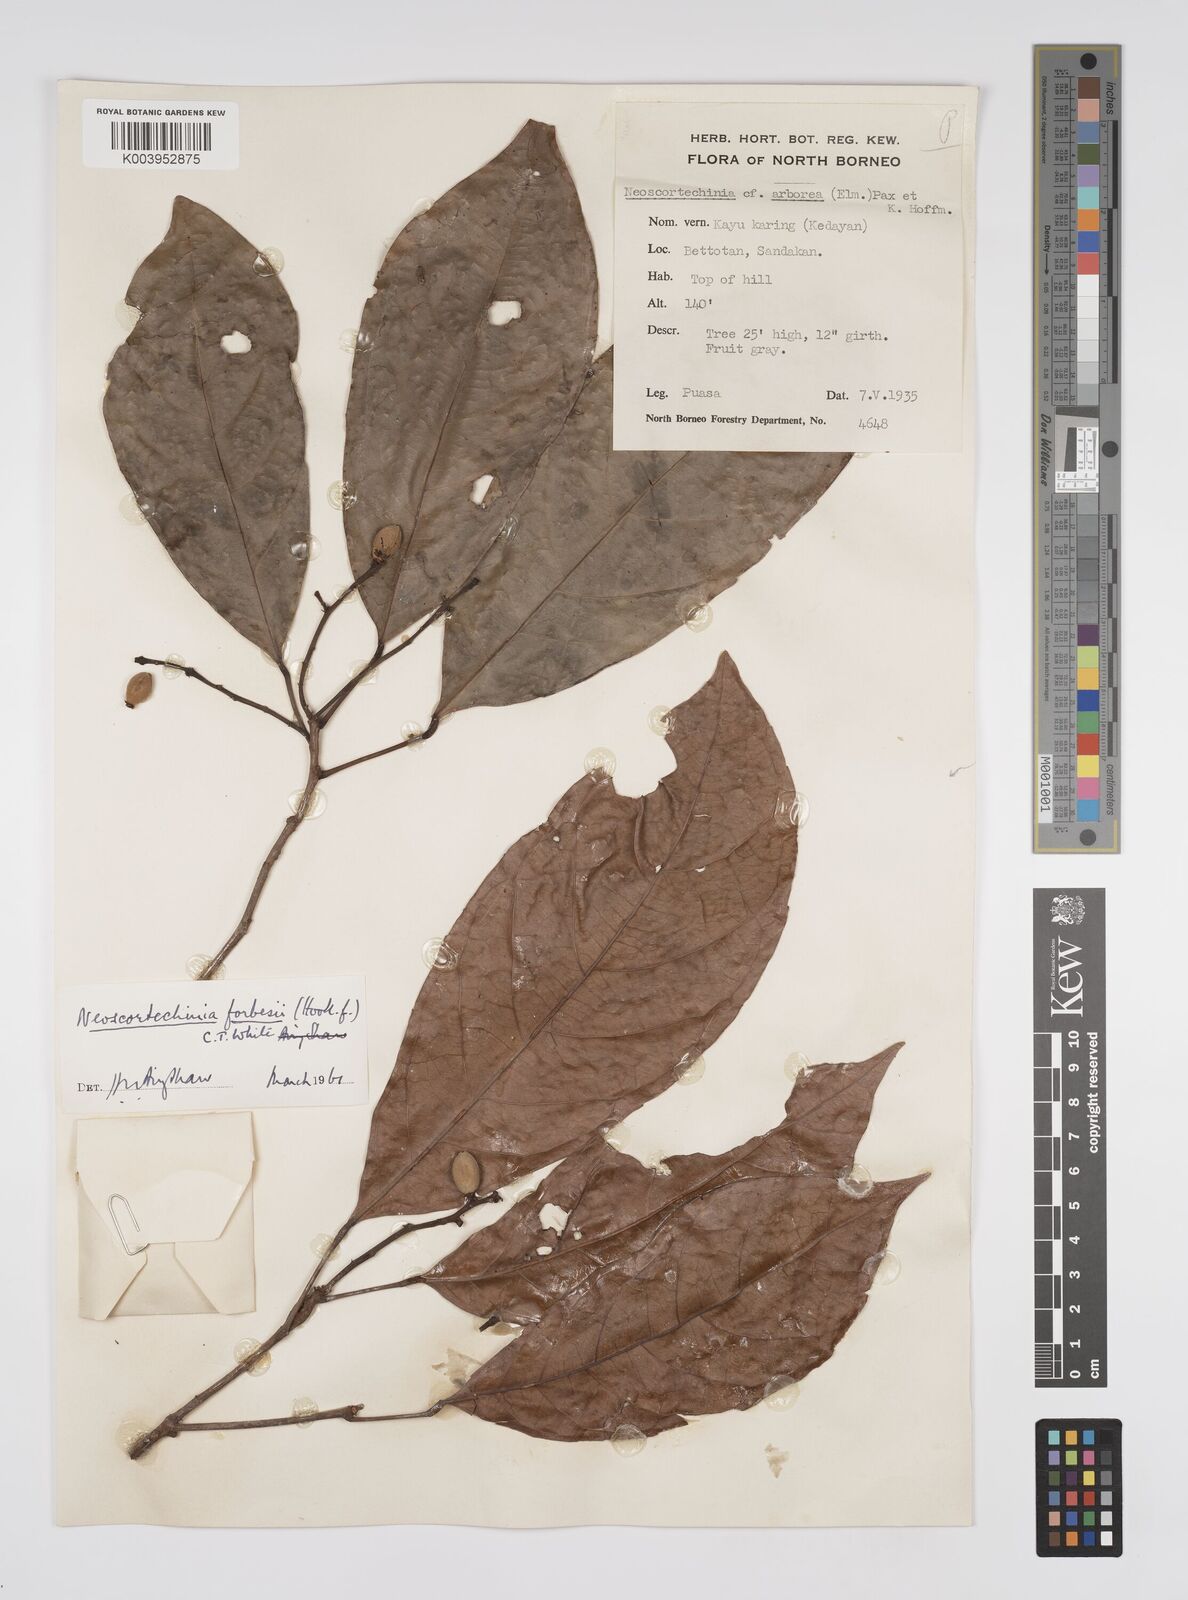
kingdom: Plantae
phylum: Tracheophyta
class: Magnoliopsida
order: Malpighiales
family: Euphorbiaceae
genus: Neoscortechinia
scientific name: Neoscortechinia philippinensis
